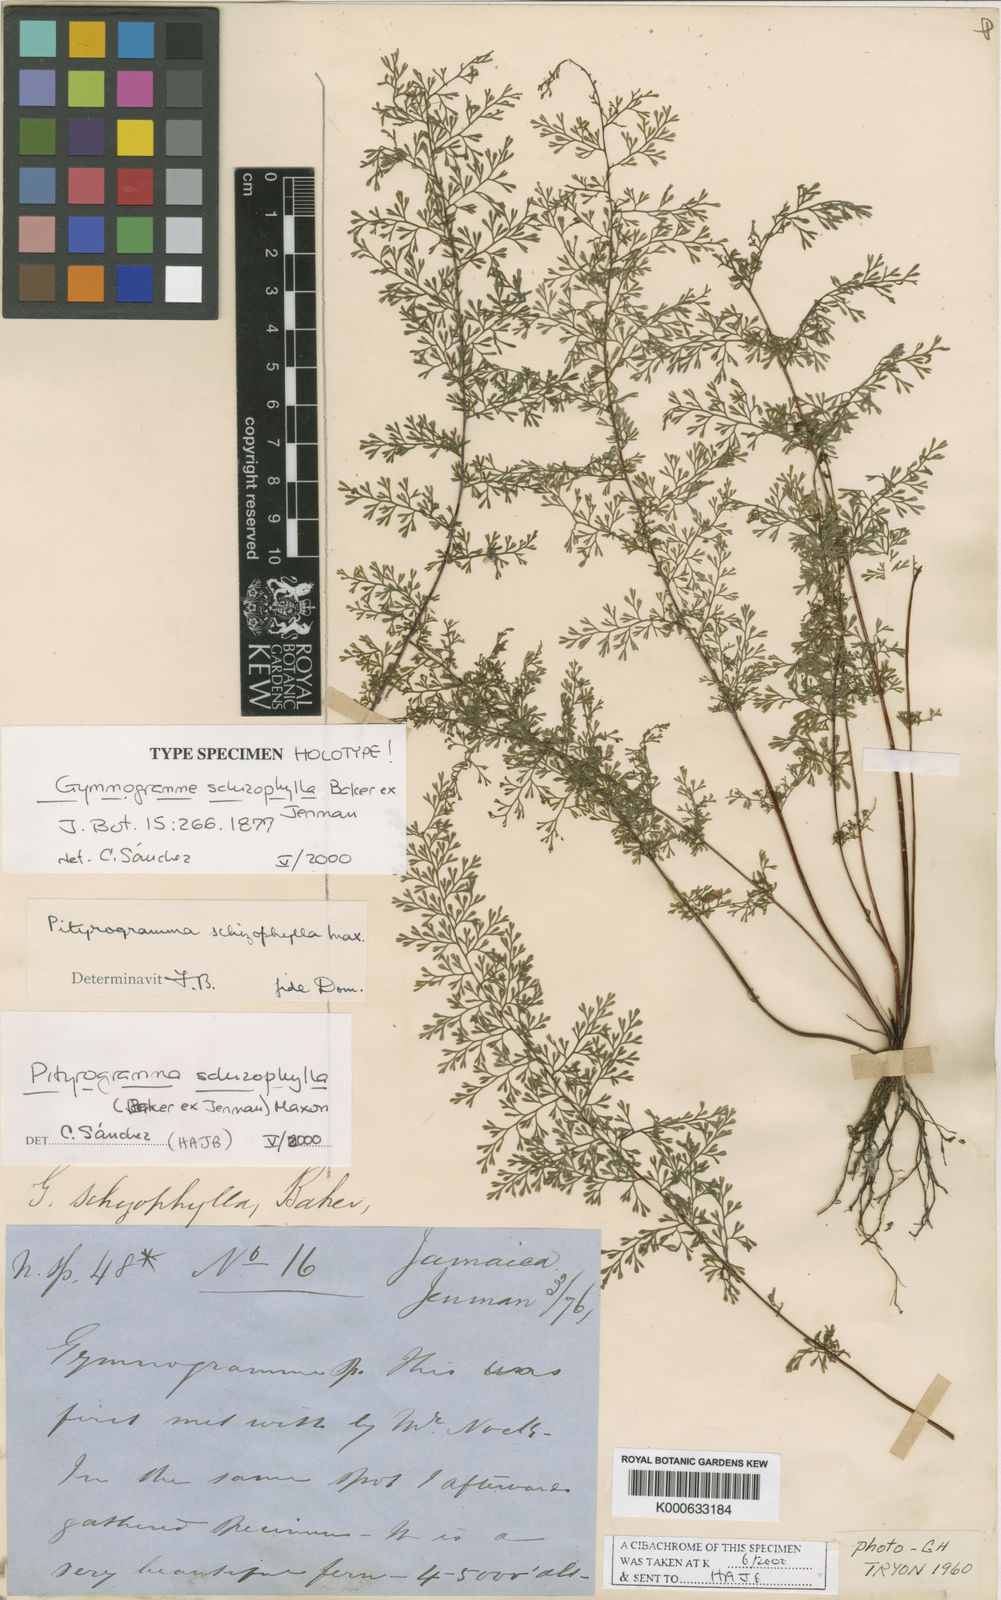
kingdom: Plantae
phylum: Tracheophyta
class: Polypodiopsida
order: Polypodiales
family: Pteridaceae
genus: Pityrogramma
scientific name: Pityrogramma schizophylla
